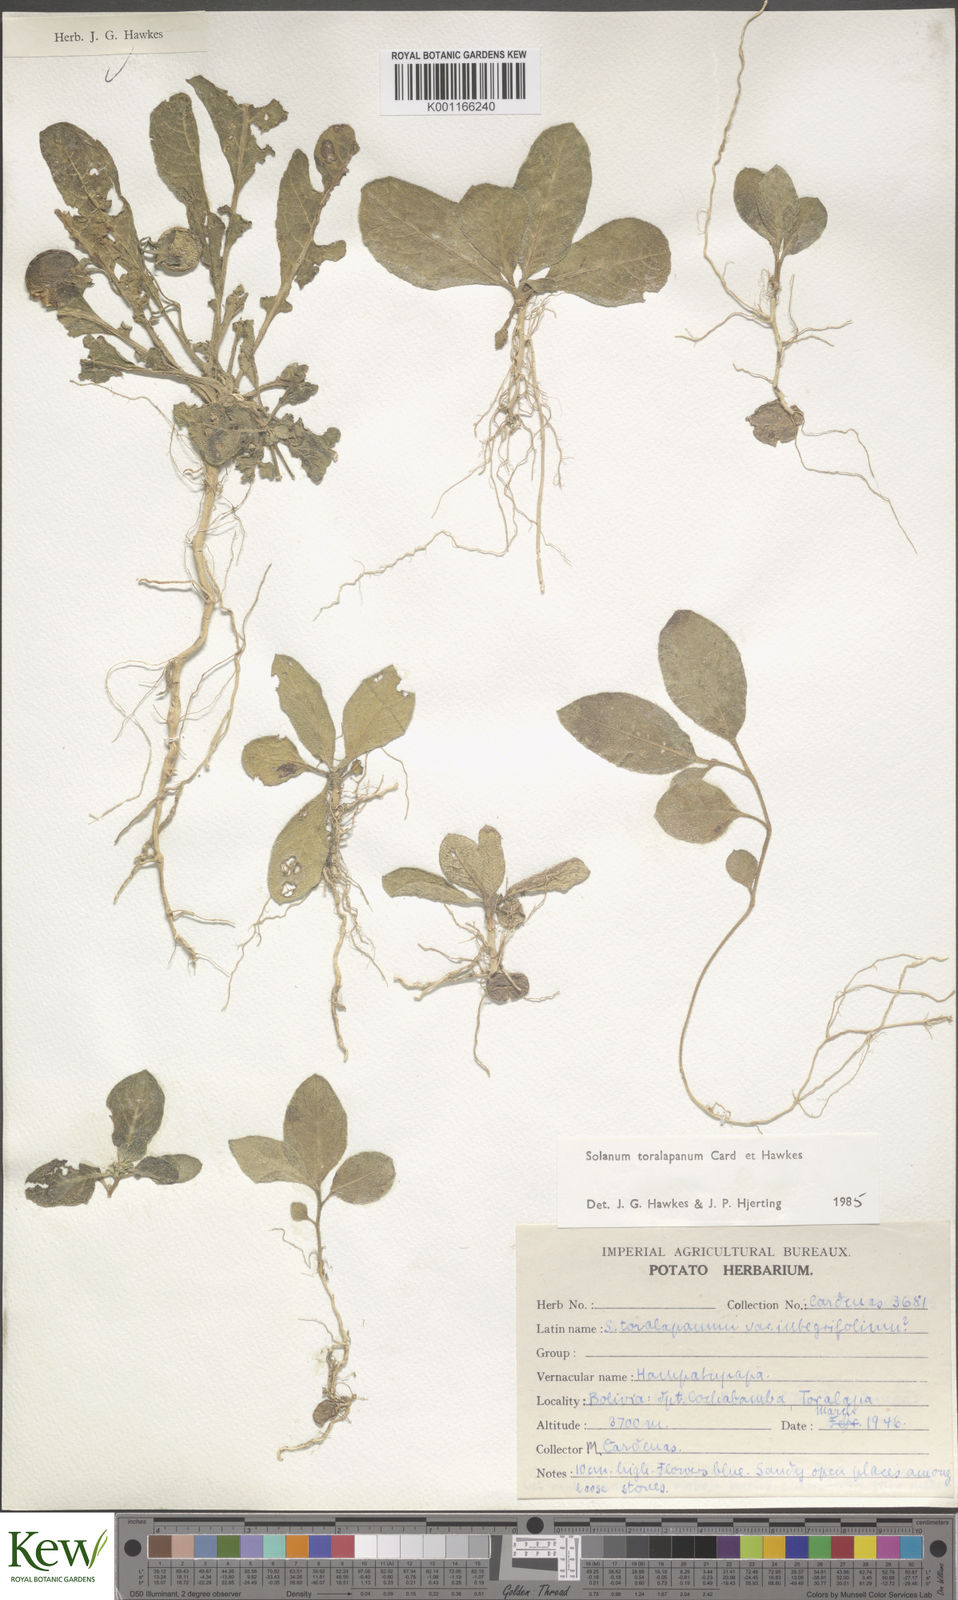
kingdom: Plantae
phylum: Tracheophyta
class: Magnoliopsida
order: Solanales
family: Solanaceae
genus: Solanum
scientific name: Solanum
